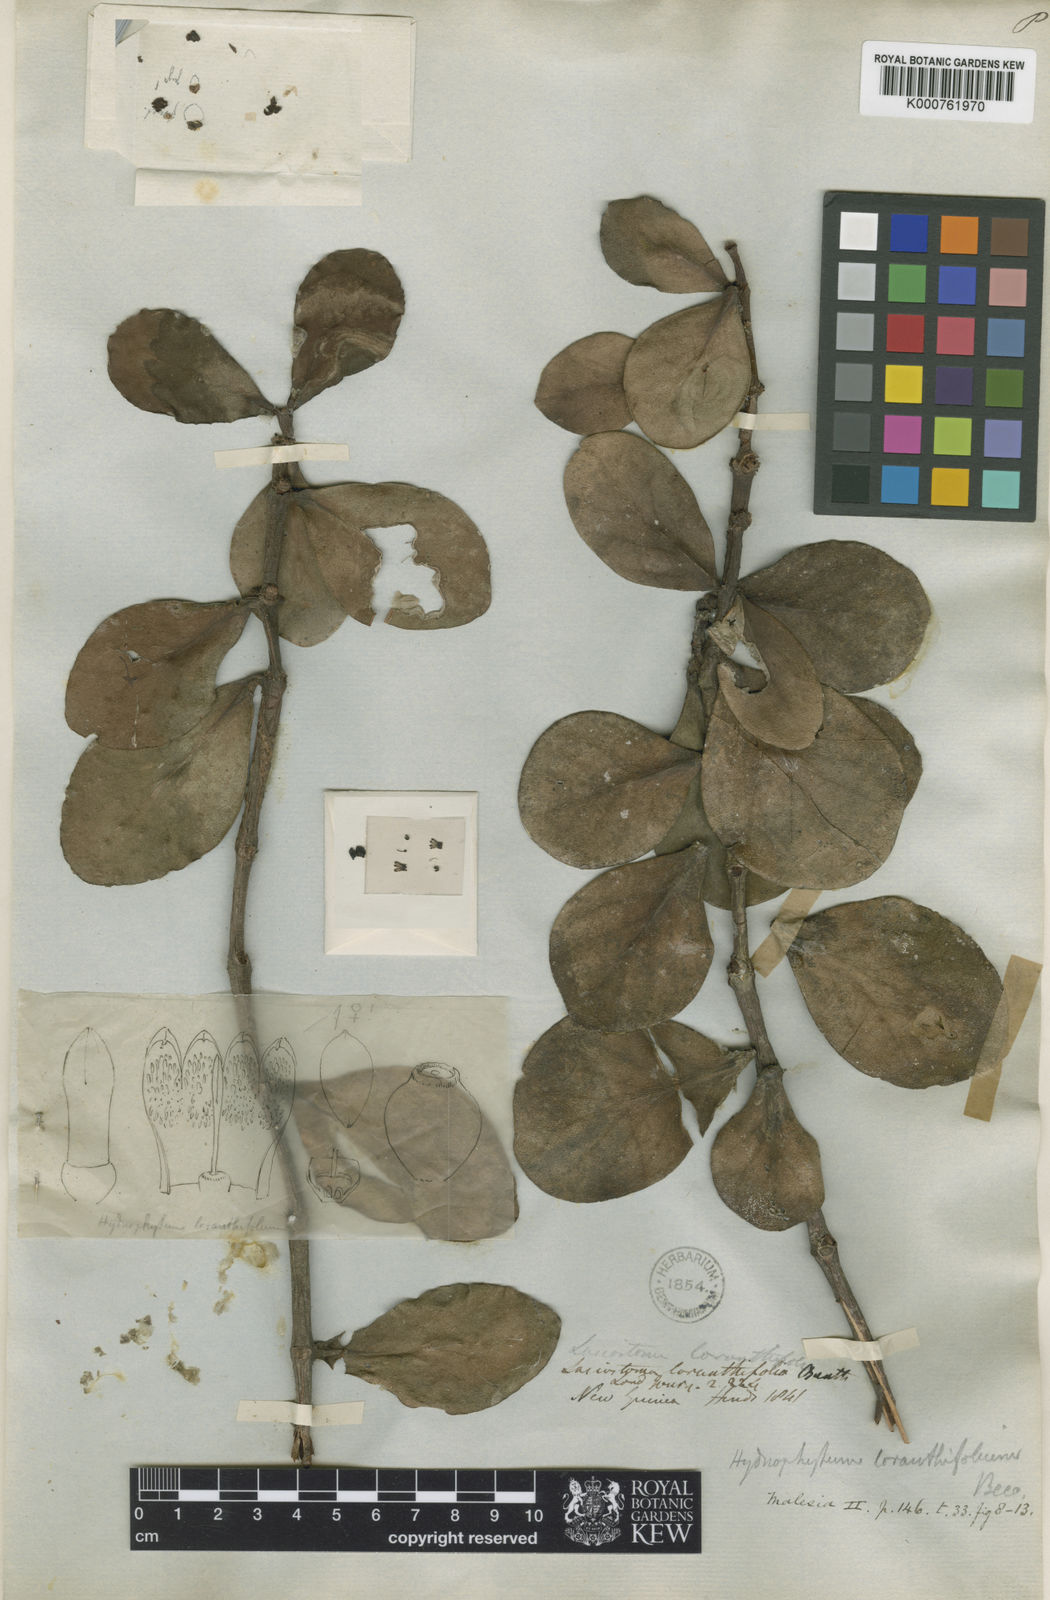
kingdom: Plantae
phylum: Tracheophyta
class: Magnoliopsida
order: Gentianales
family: Rubiaceae
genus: Hydnophytum
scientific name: Hydnophytum moseleyanum
